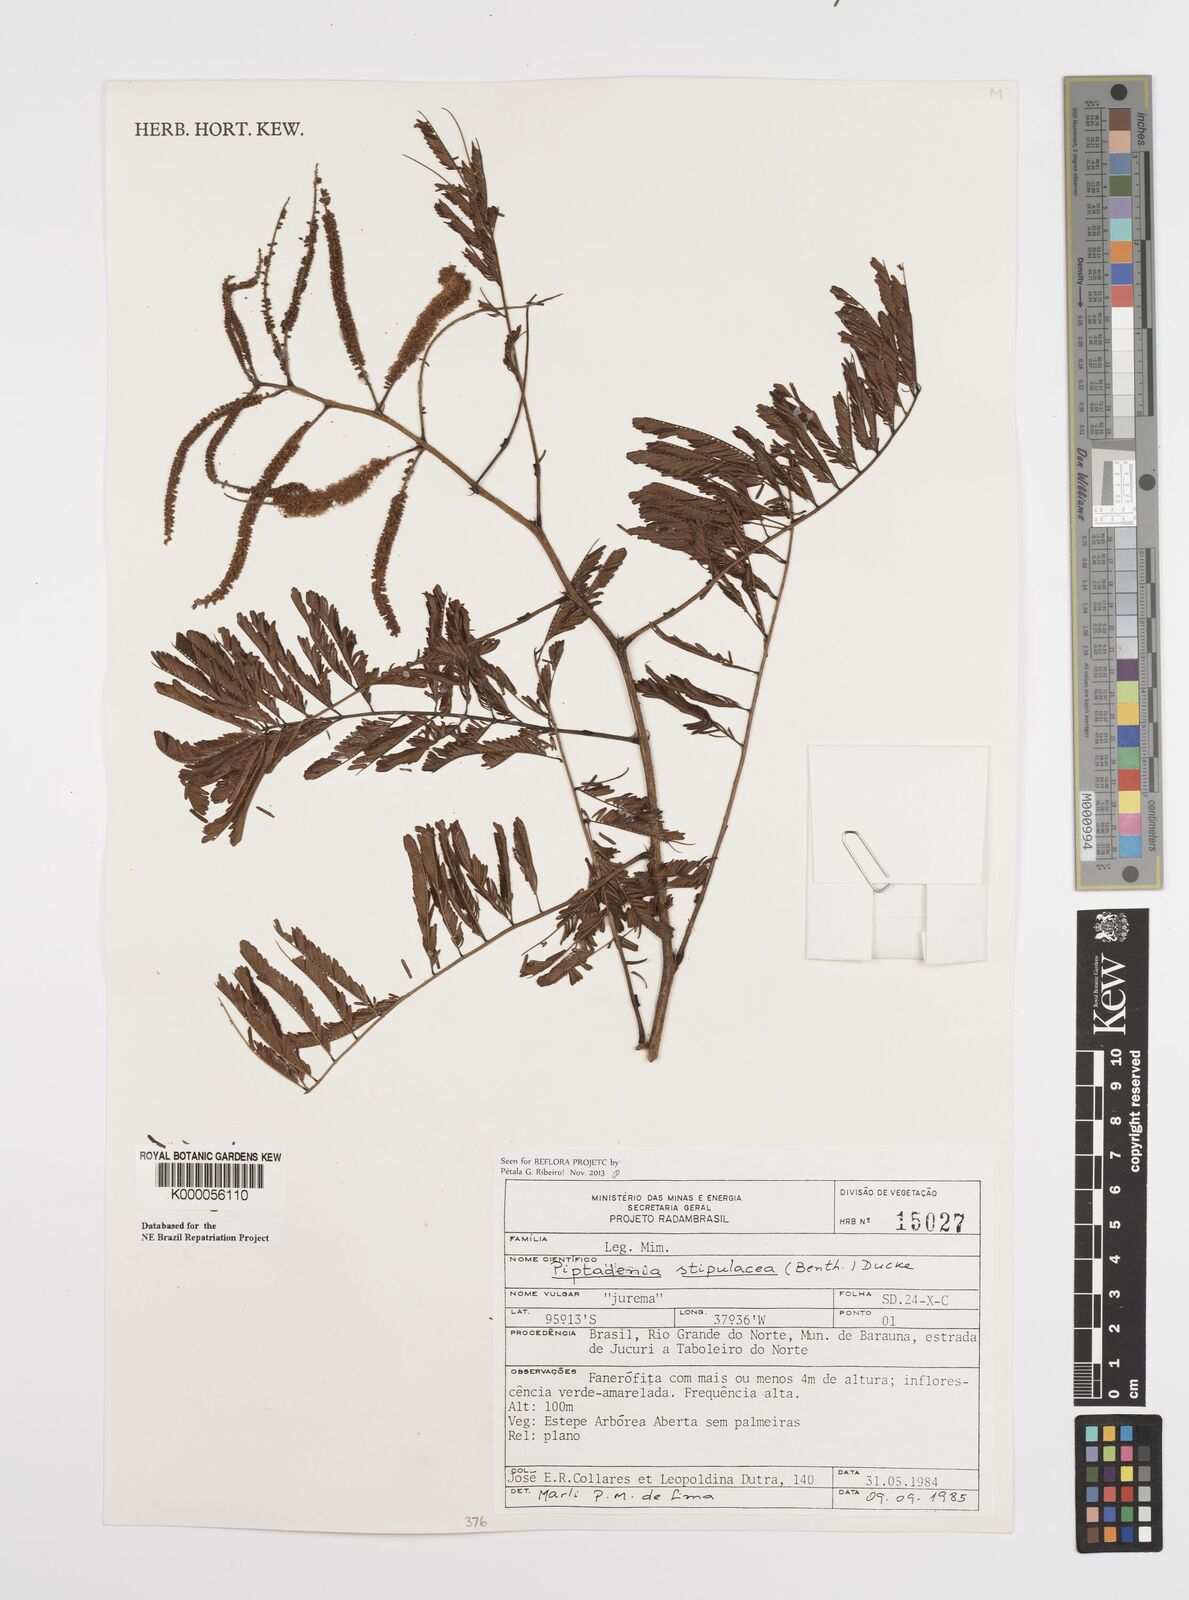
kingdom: Plantae
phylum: Tracheophyta
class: Magnoliopsida
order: Fabales
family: Fabaceae
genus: Piptadenia
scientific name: Piptadenia retusa
